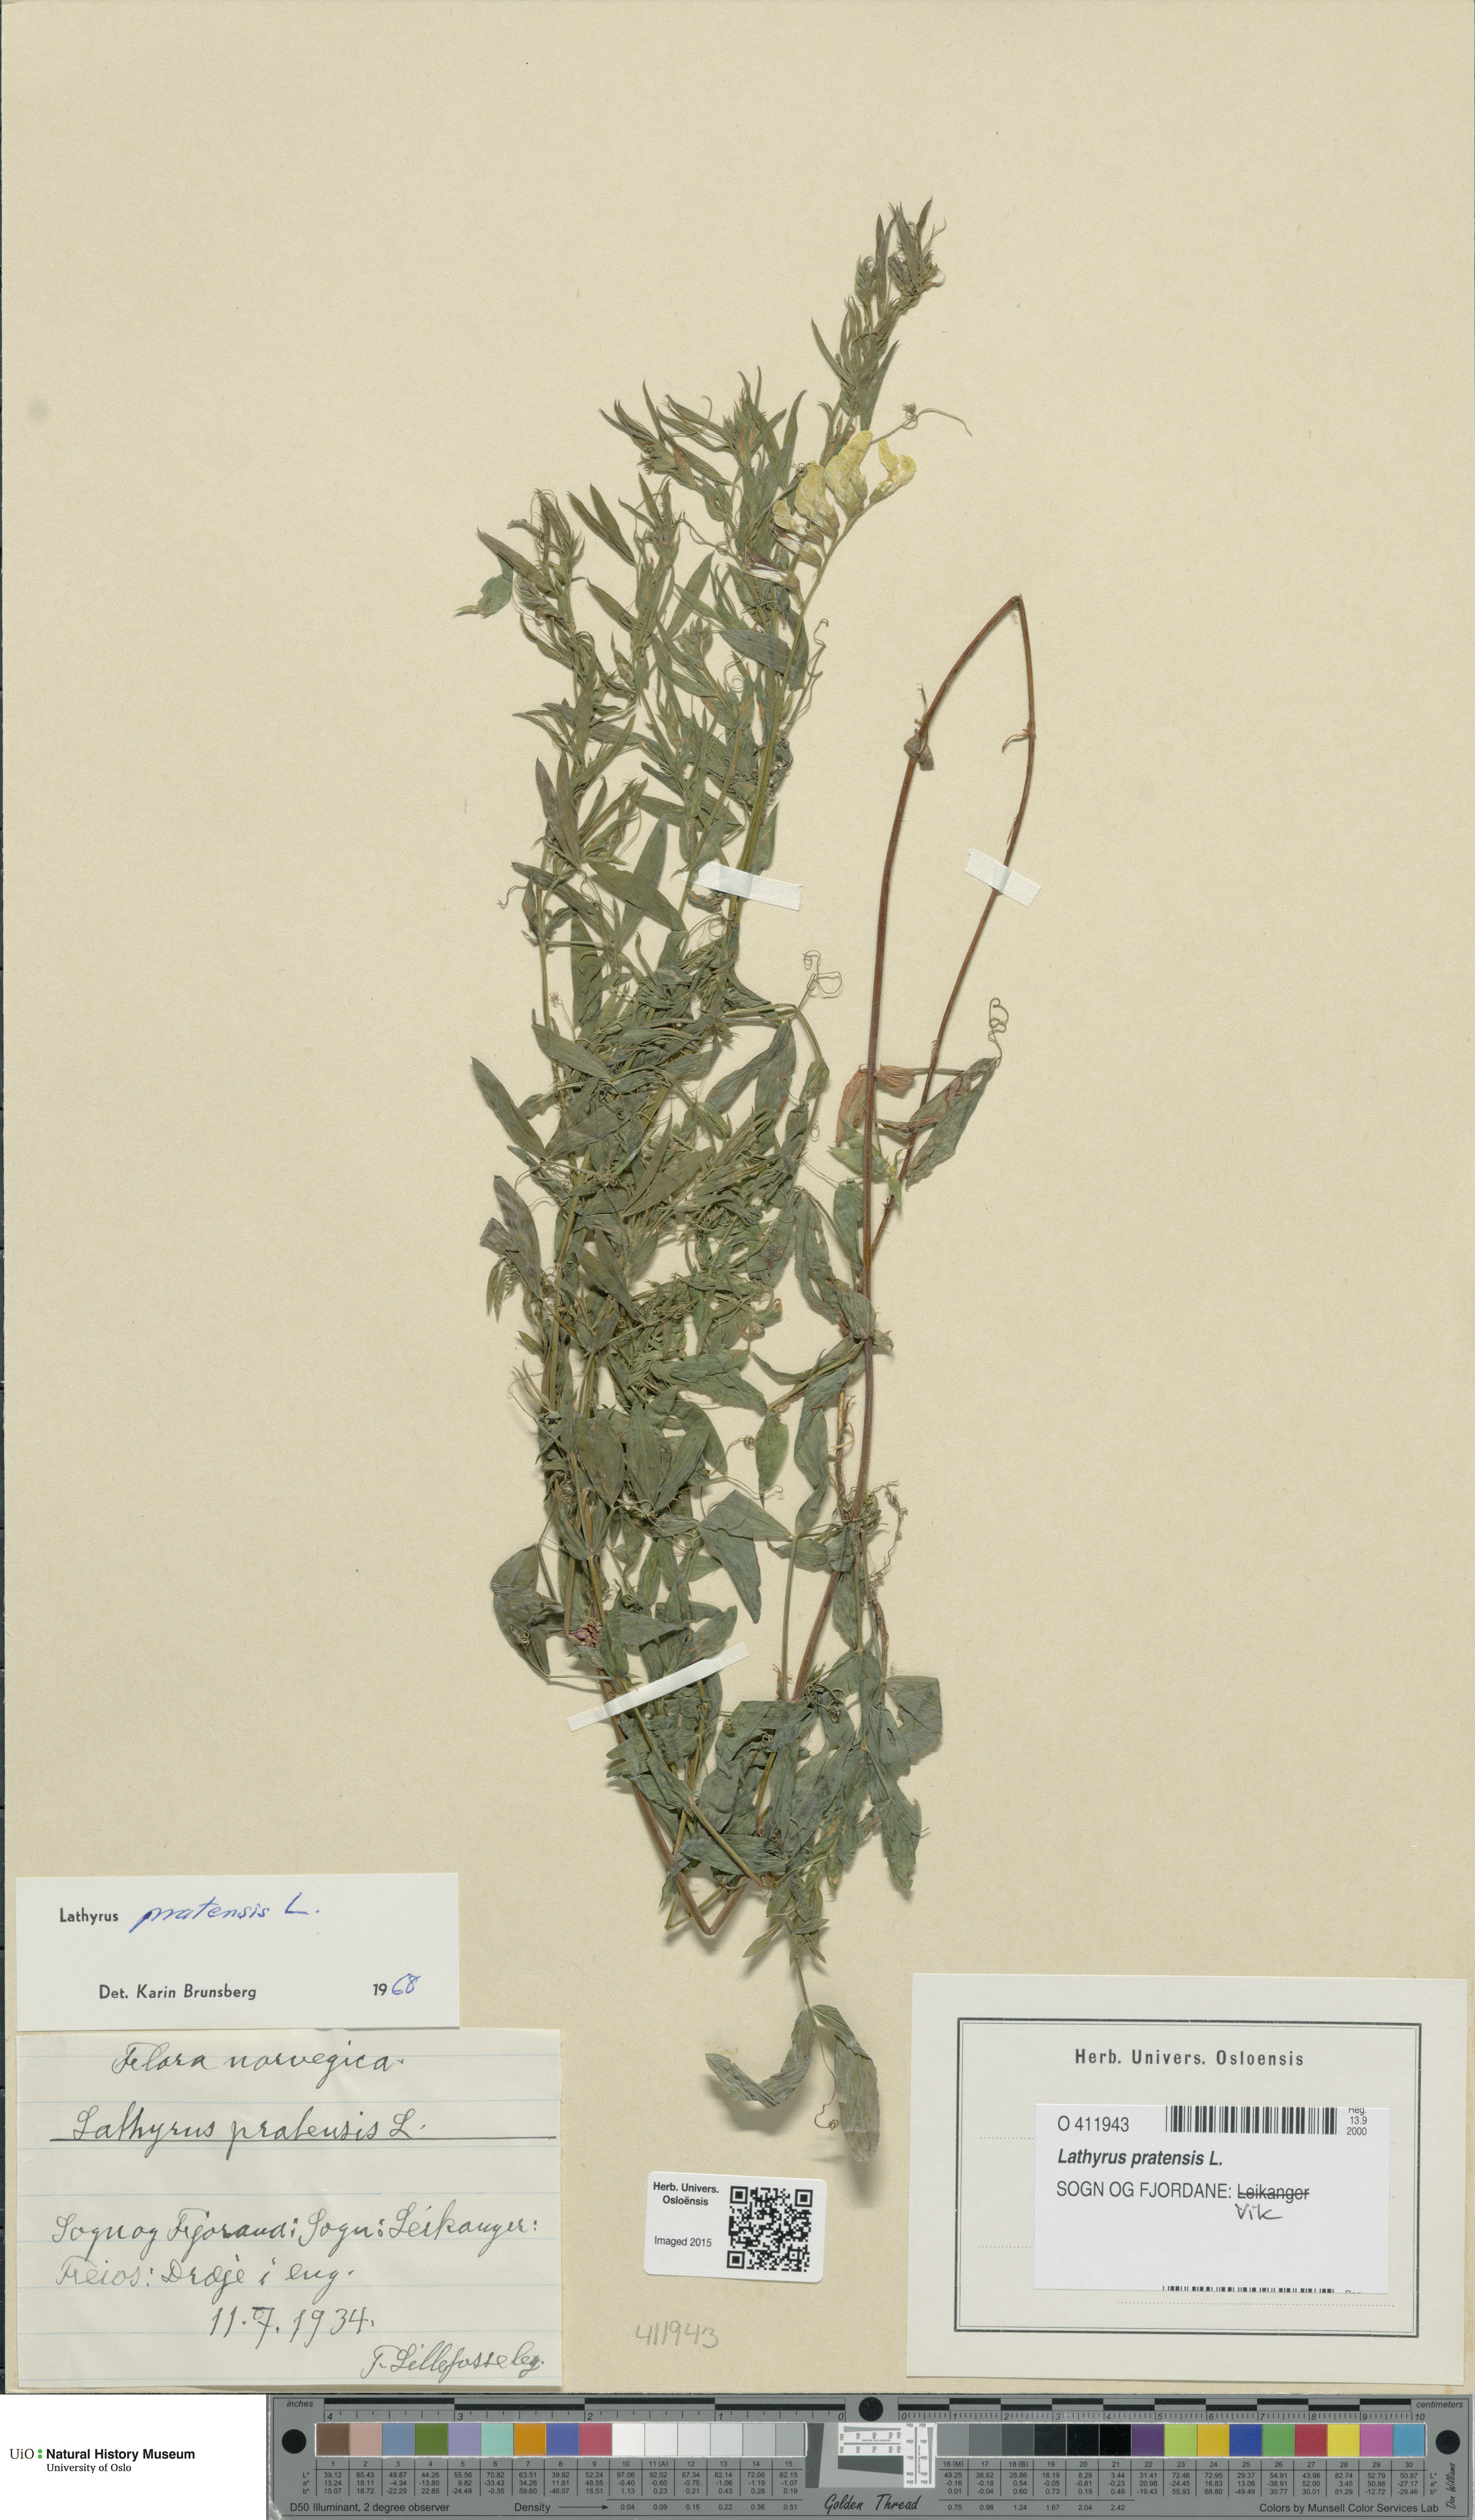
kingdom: Plantae
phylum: Tracheophyta
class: Magnoliopsida
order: Fabales
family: Fabaceae
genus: Lathyrus
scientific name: Lathyrus pratensis
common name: Meadow vetchling
